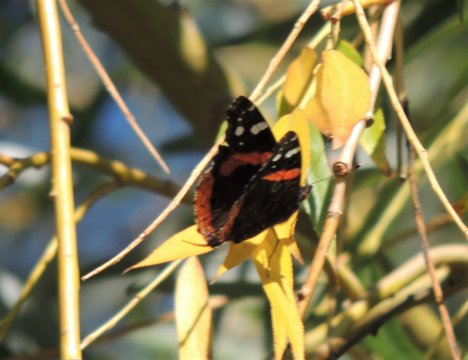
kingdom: Animalia
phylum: Arthropoda
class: Insecta
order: Lepidoptera
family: Nymphalidae
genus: Vanessa
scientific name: Vanessa atalanta
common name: Red Admiral
